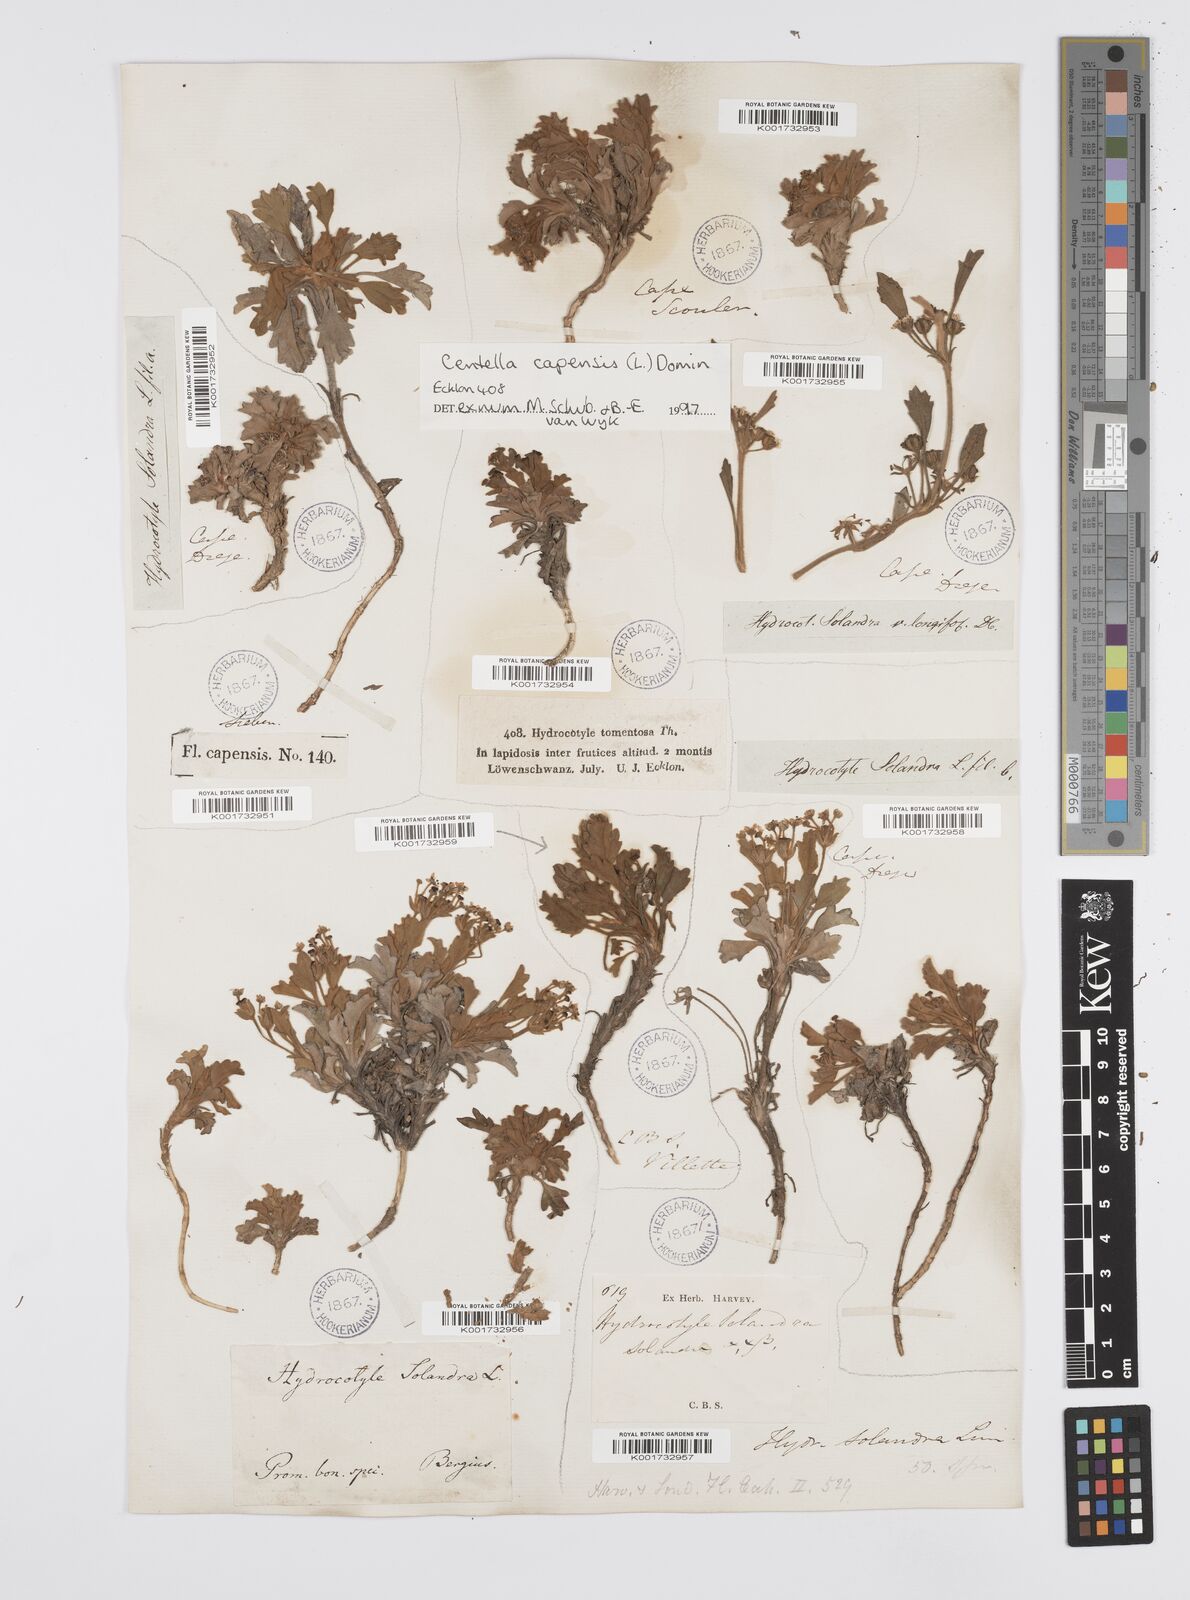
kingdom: Plantae
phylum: Tracheophyta
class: Magnoliopsida
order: Apiales
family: Apiaceae
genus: Centella
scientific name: Centella capensis
